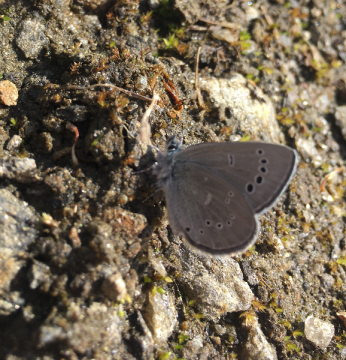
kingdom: Animalia
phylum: Arthropoda
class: Insecta
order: Lepidoptera
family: Lycaenidae
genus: Glaucopsyche
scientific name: Glaucopsyche lygdamus
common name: Silvery Blue
